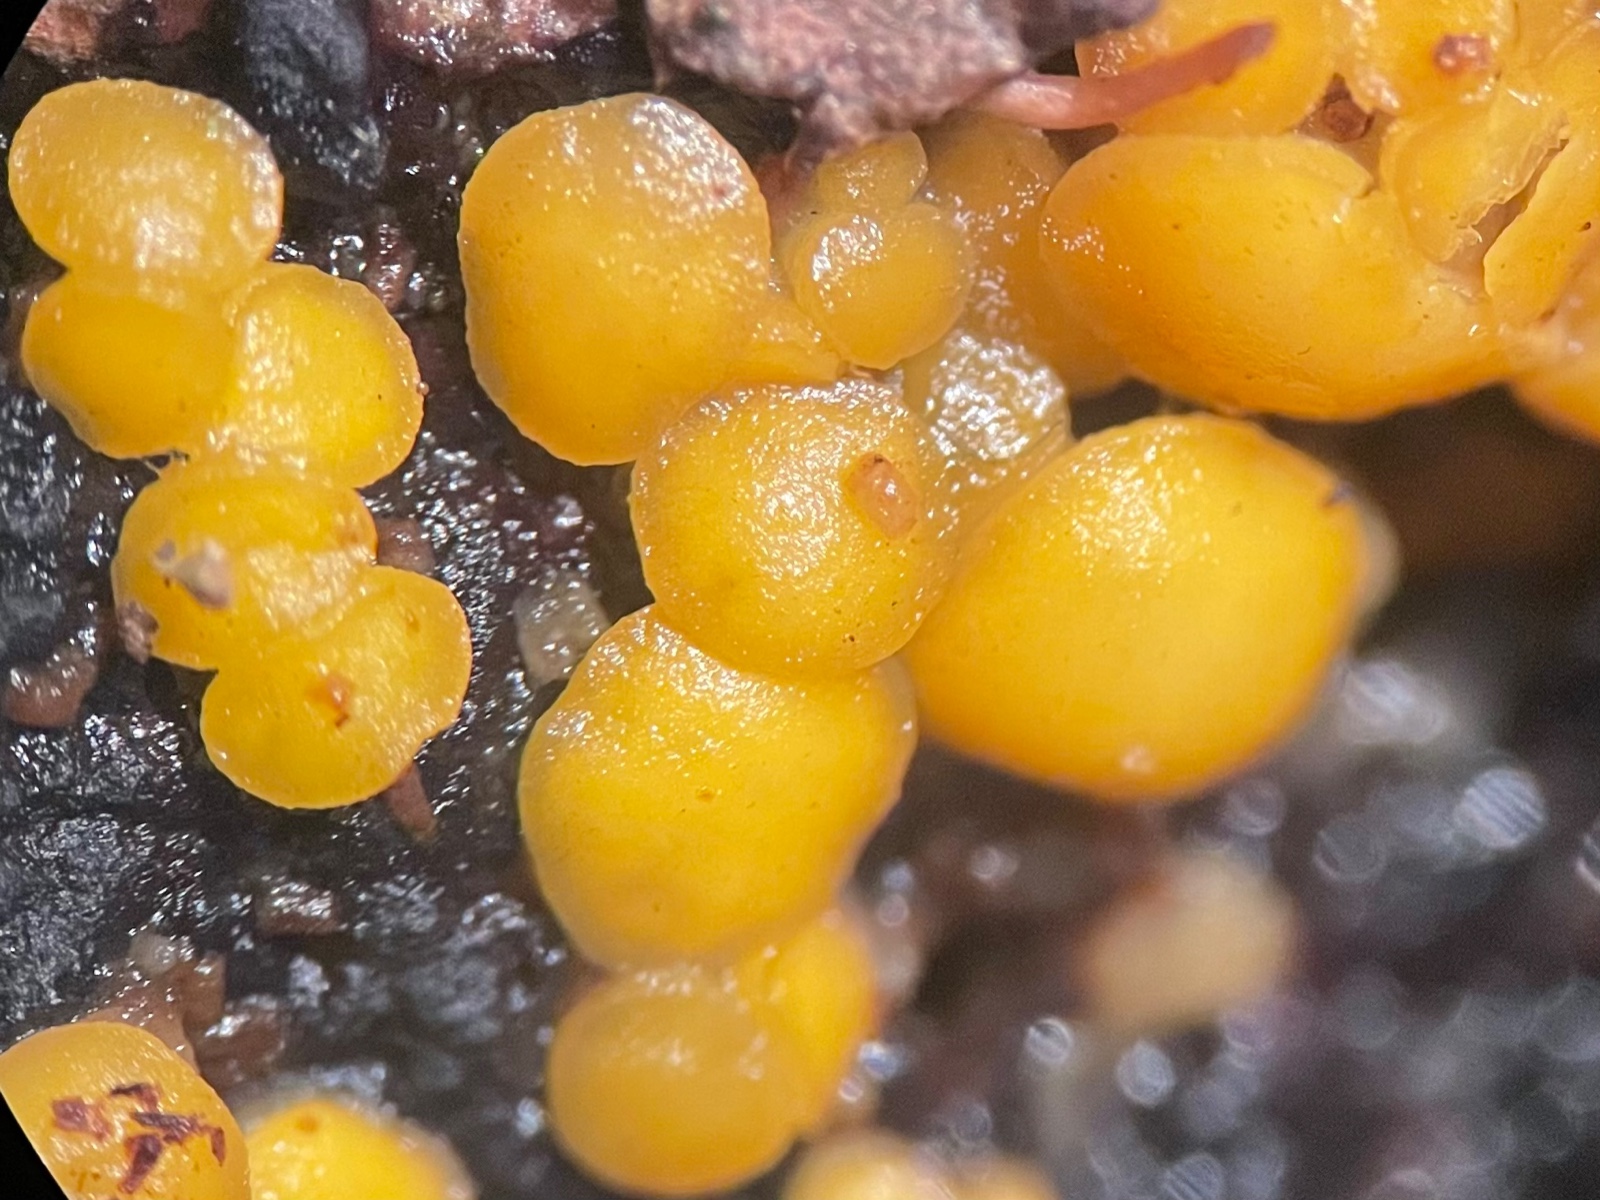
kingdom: Fungi
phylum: Ascomycota
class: Leotiomycetes
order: Helotiales
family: Pezizellaceae
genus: Calycina
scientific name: Calycina citrina
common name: almindelig gulskive
